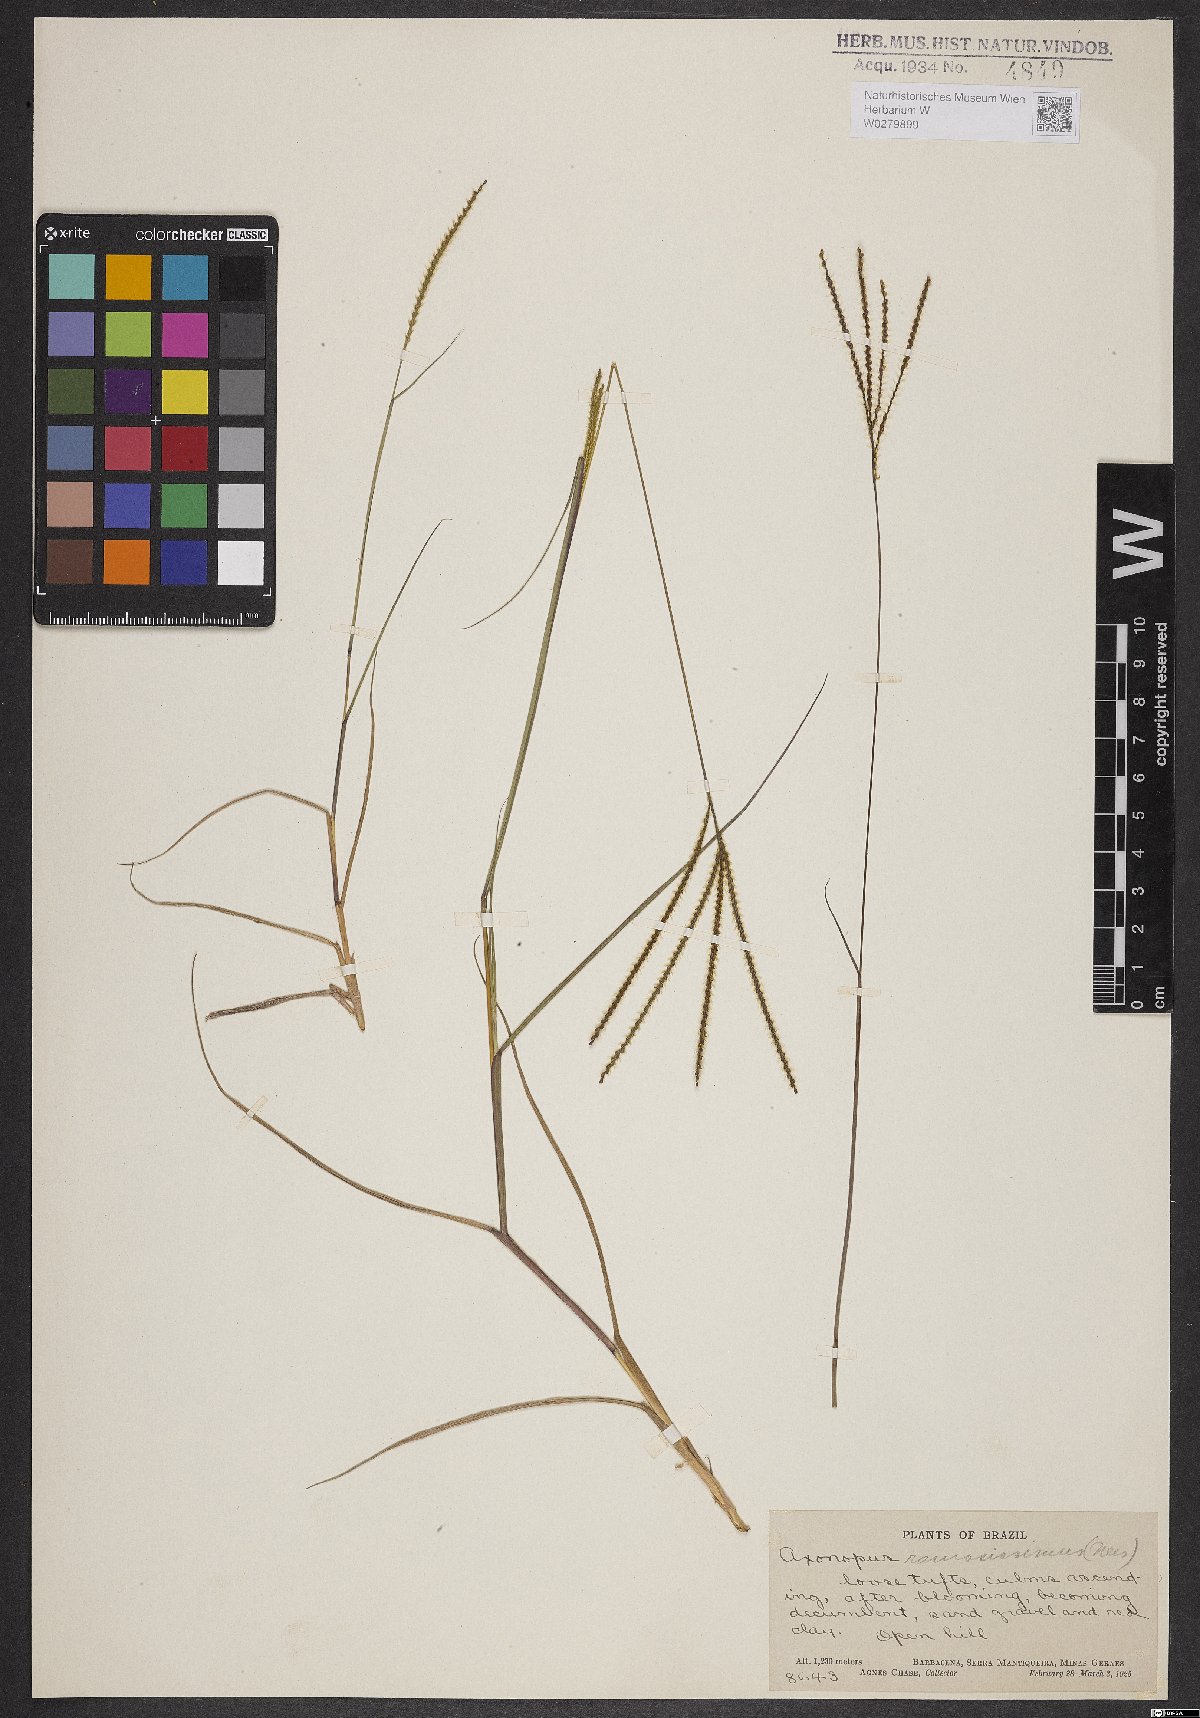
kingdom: Plantae
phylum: Tracheophyta
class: Liliopsida
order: Poales
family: Poaceae
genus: Axonopus
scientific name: Axonopus aureus
